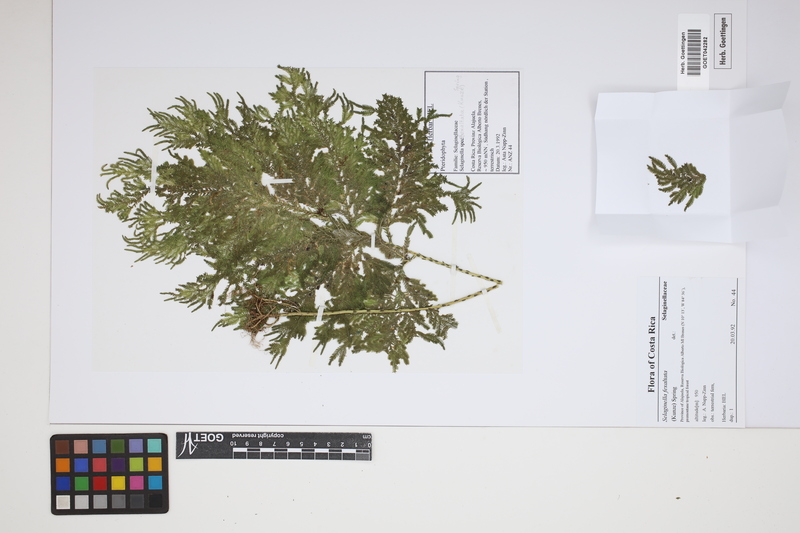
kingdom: Plantae
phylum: Tracheophyta
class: Lycopodiopsida
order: Selaginellales
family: Selaginellaceae
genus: Selaginella
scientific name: Selaginella exaltata
